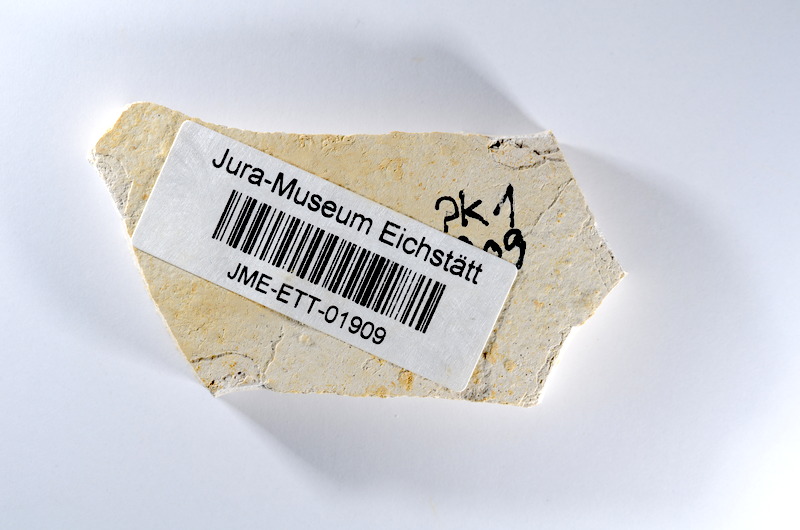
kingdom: Animalia
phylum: Chordata
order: Salmoniformes
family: Orthogonikleithridae
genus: Orthogonikleithrus
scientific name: Orthogonikleithrus hoelli
